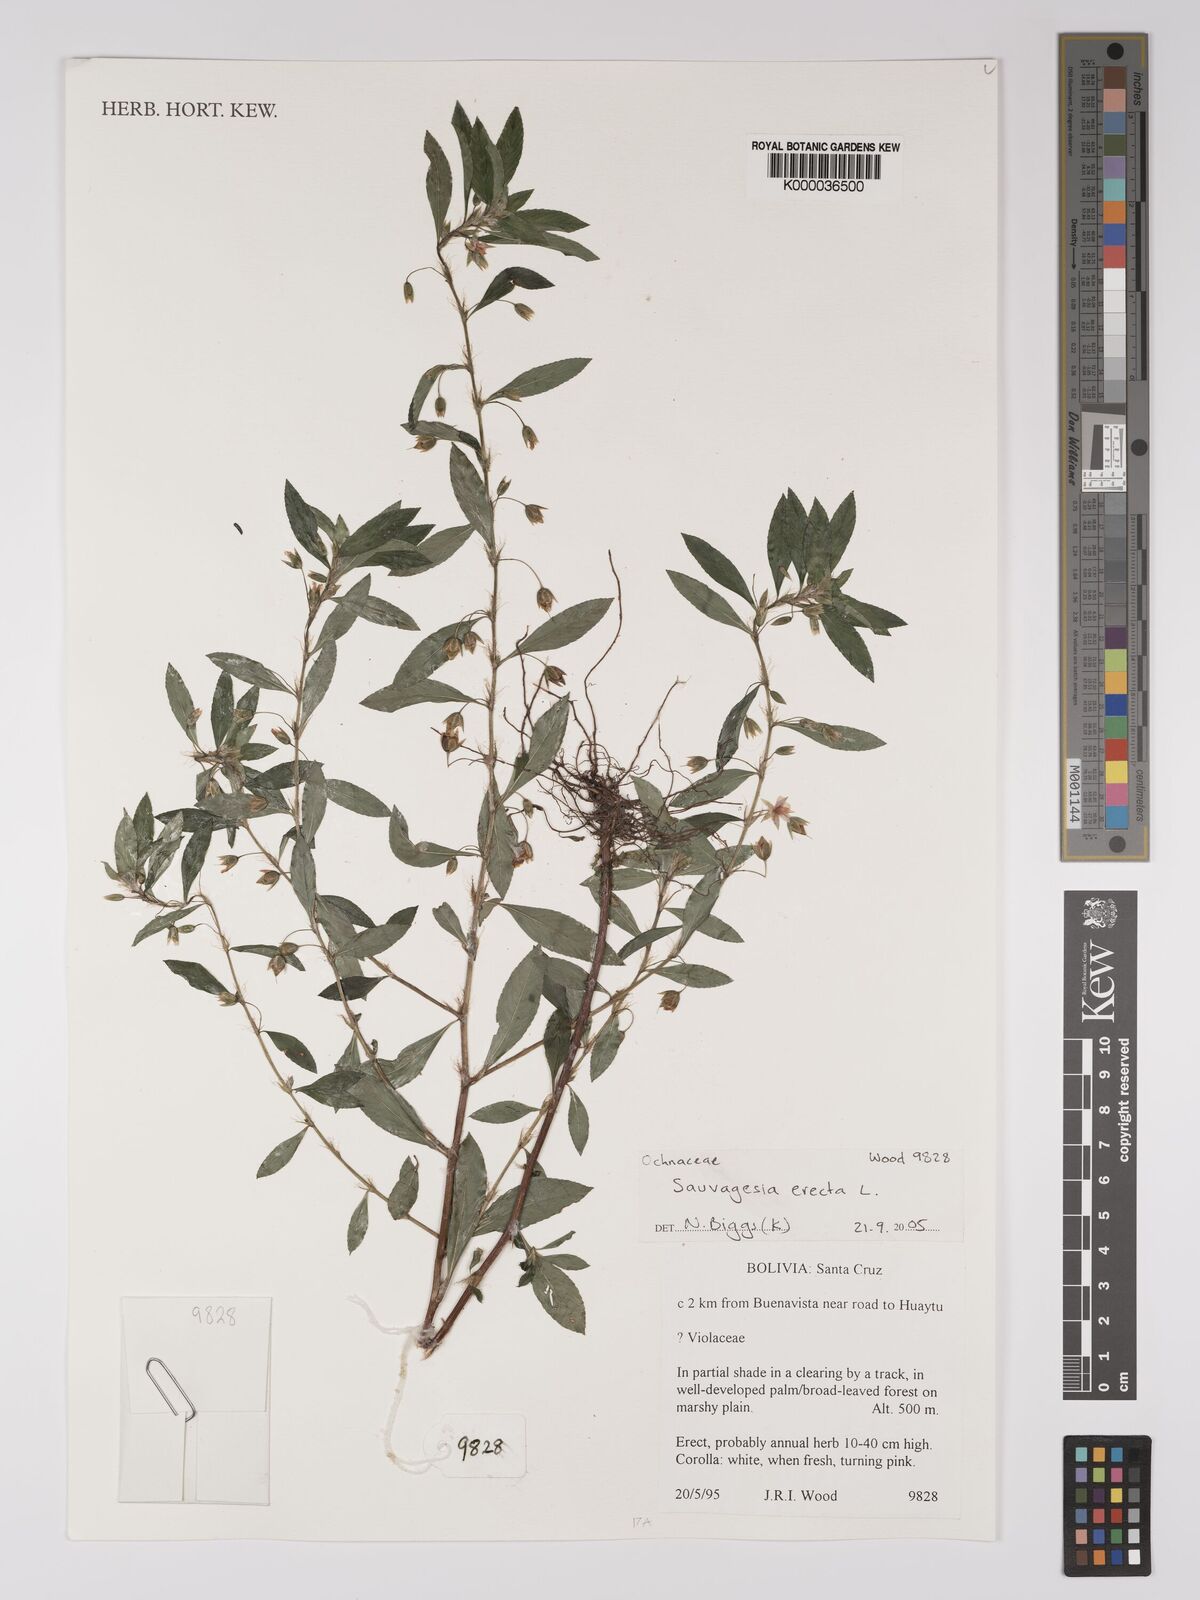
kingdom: Plantae
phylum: Tracheophyta
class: Magnoliopsida
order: Malpighiales
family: Ochnaceae
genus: Sauvagesia
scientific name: Sauvagesia erecta
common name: Creole tea
